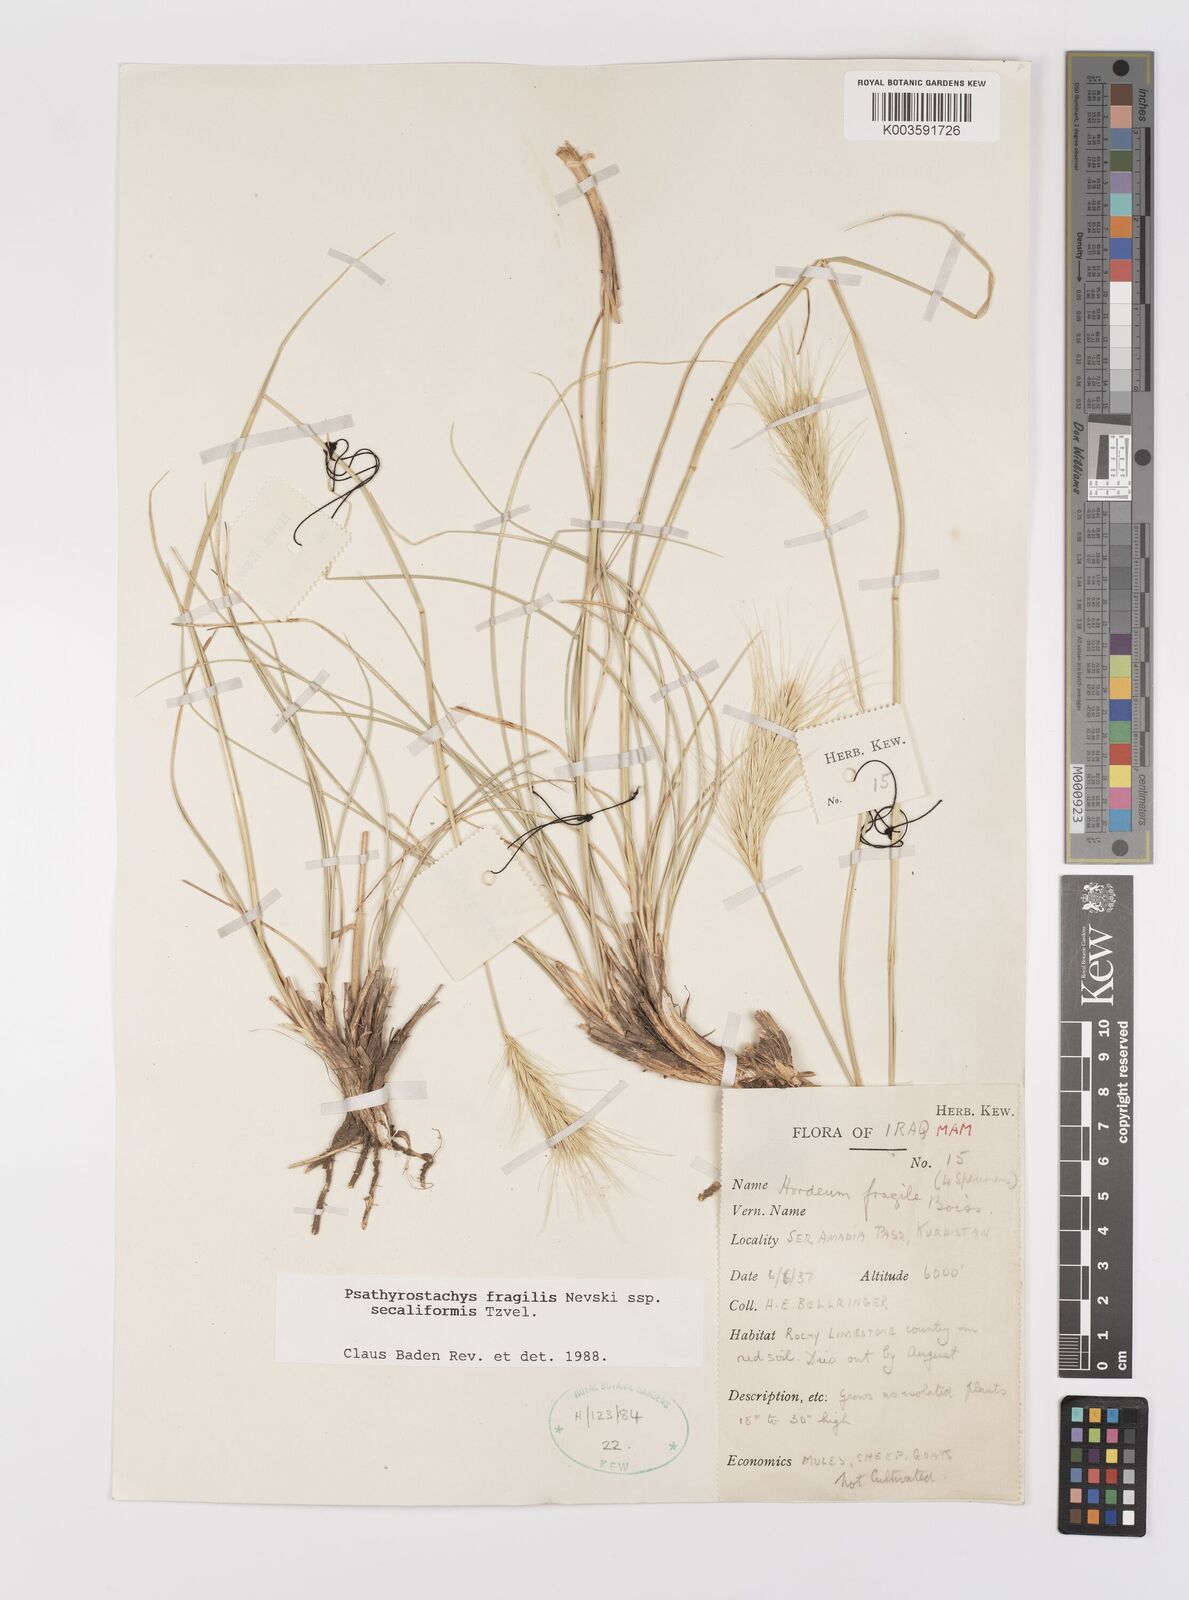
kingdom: Plantae
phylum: Tracheophyta
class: Liliopsida
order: Poales
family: Poaceae
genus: Psathyrostachys
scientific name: Psathyrostachys fragilis
